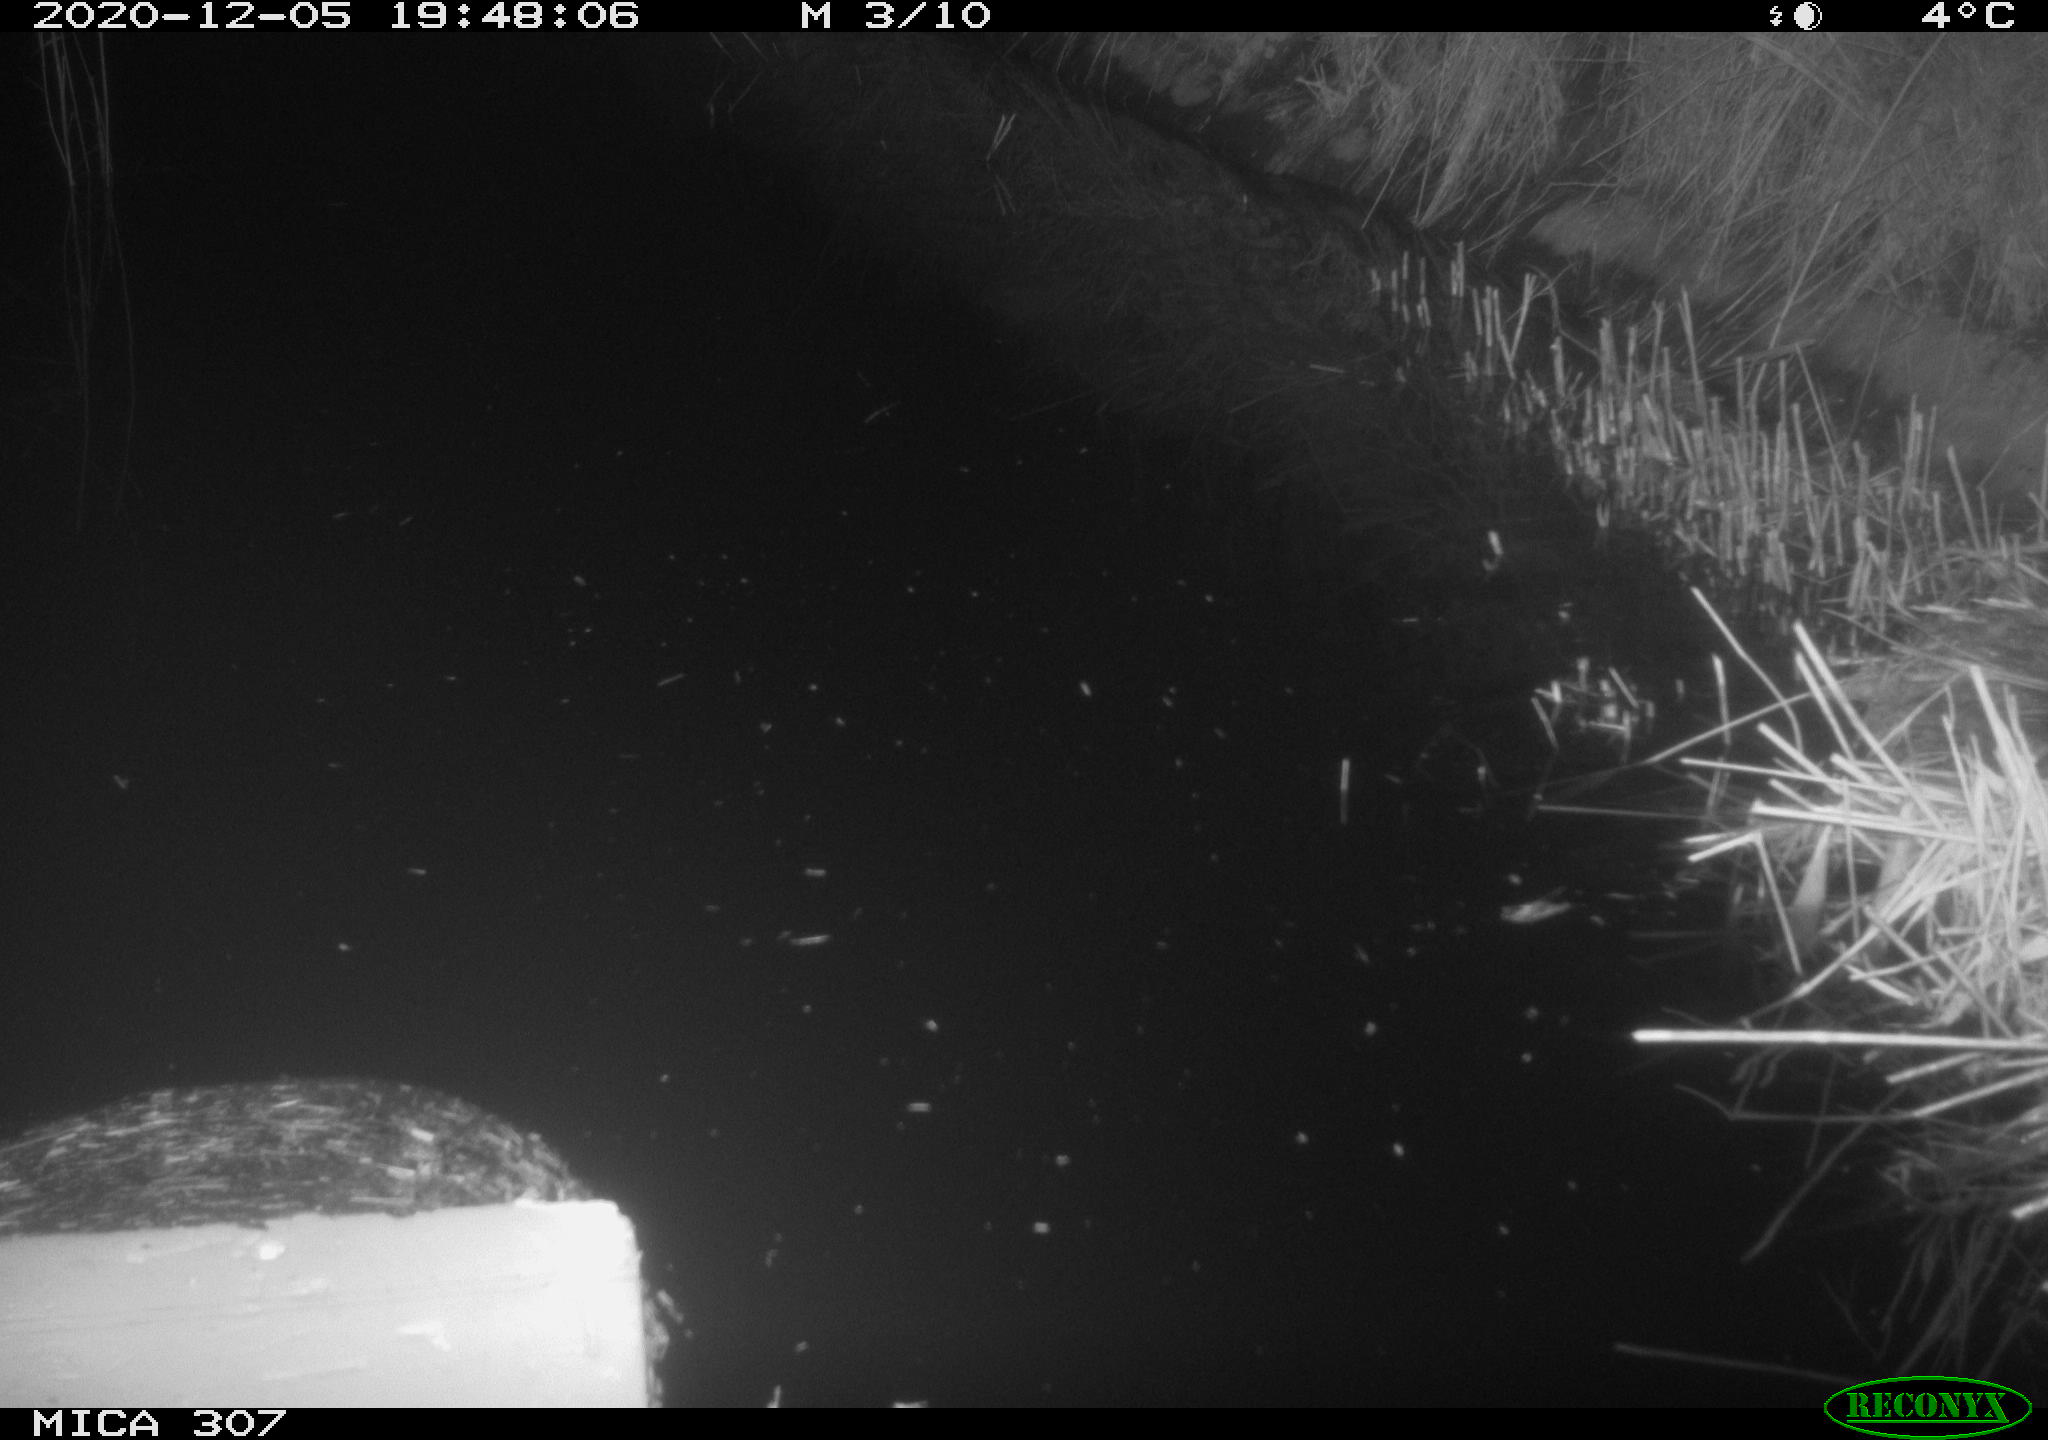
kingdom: Animalia
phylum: Chordata
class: Mammalia
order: Rodentia
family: Muridae
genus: Rattus
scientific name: Rattus norvegicus
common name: Brown rat
